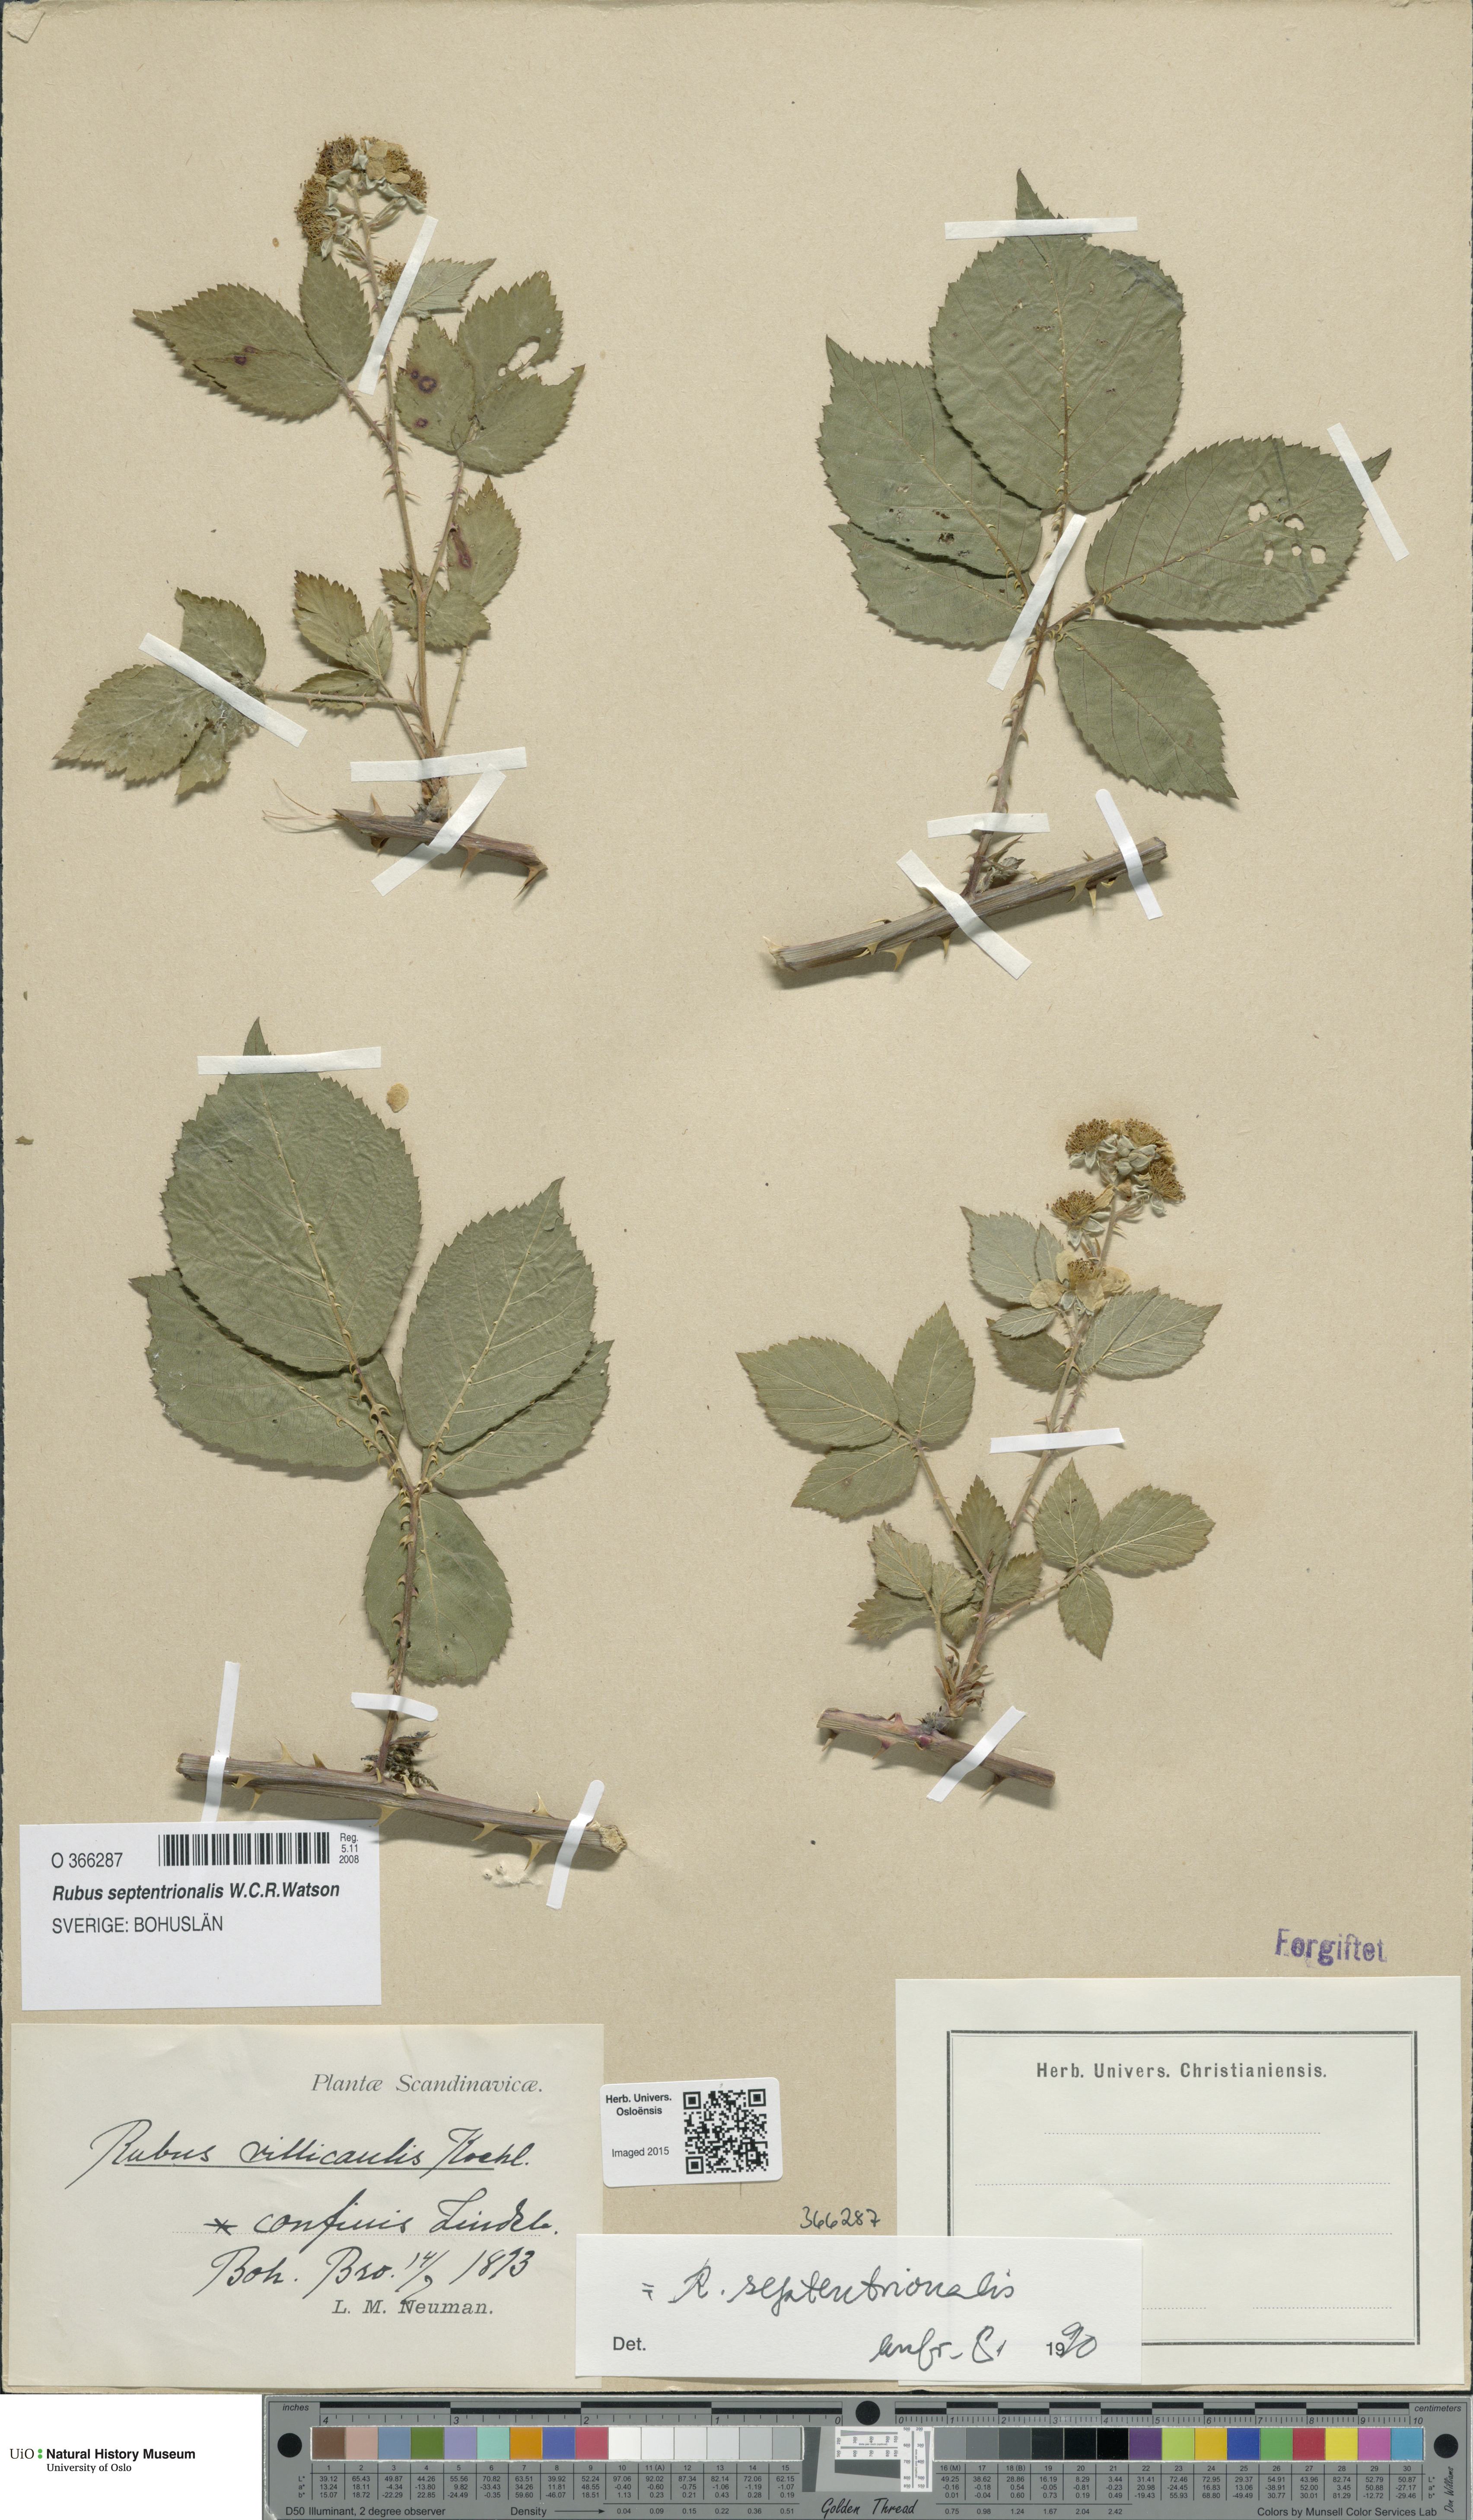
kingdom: Plantae
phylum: Tracheophyta
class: Magnoliopsida
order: Rosales
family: Rosaceae
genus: Rubus
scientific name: Rubus septentrionalis
